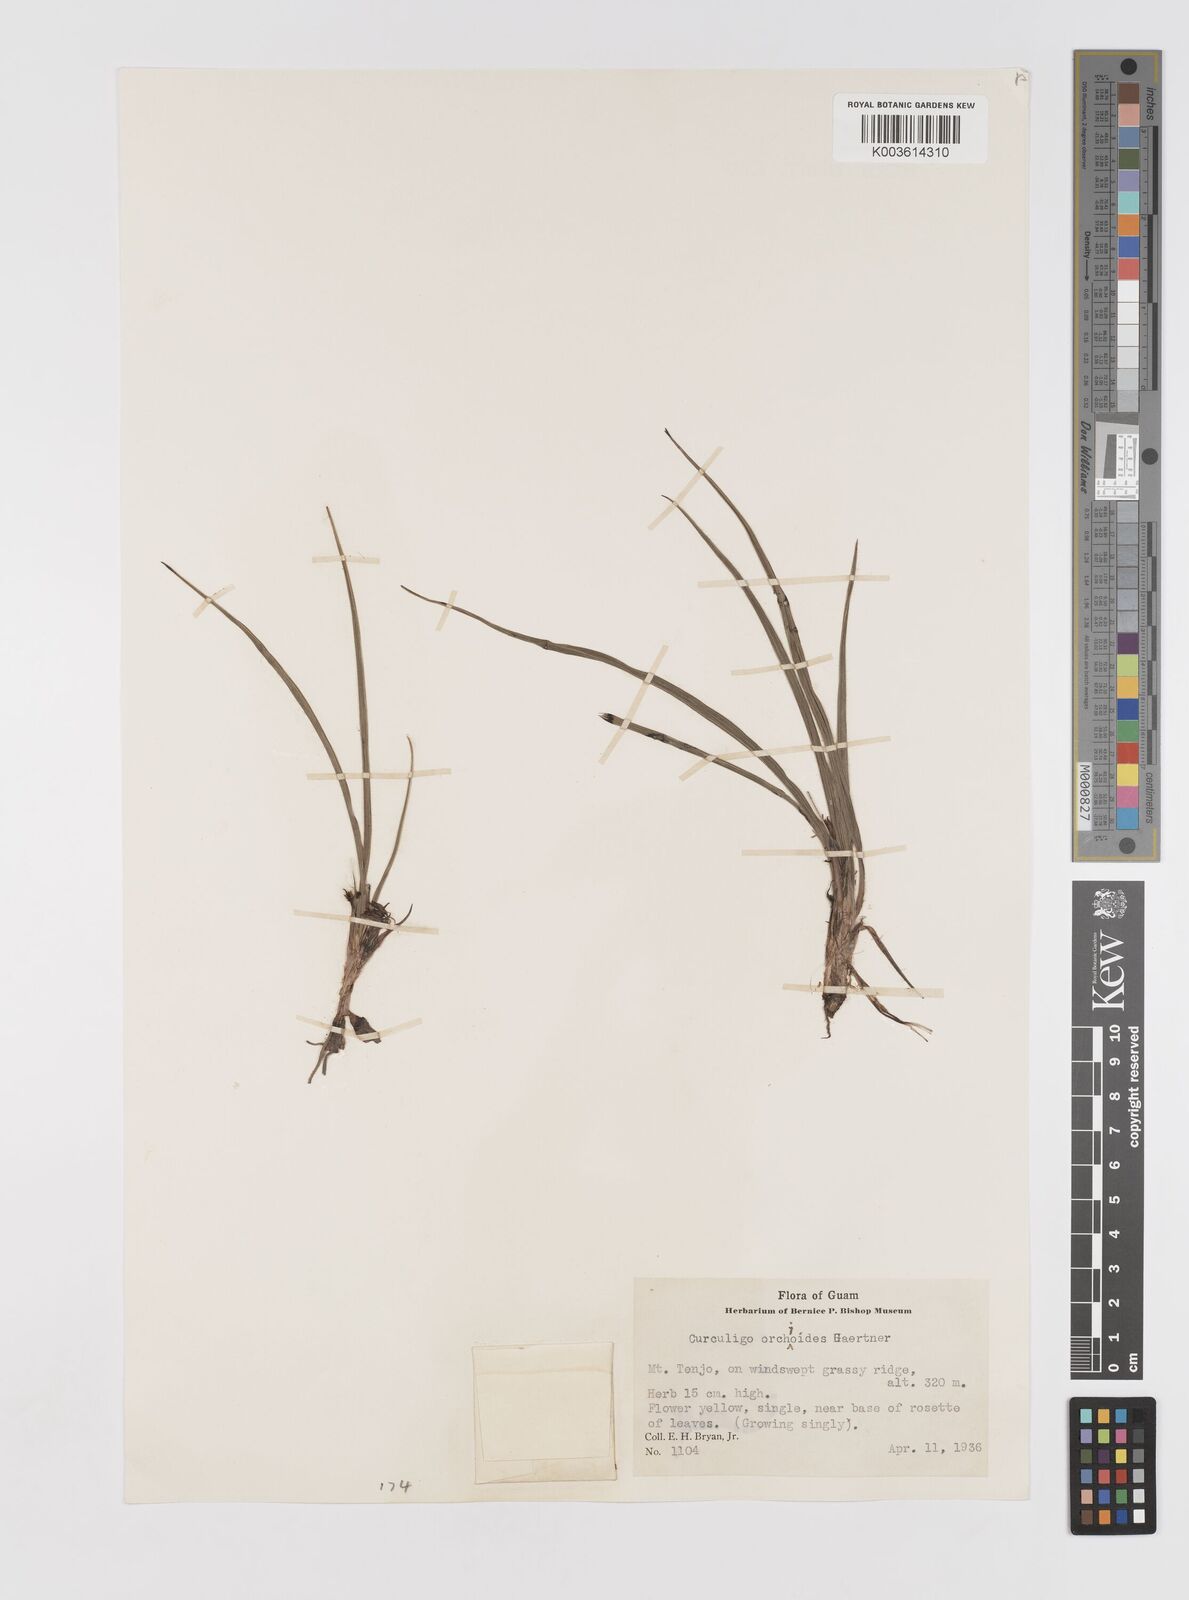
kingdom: Plantae
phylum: Tracheophyta
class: Liliopsida
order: Asparagales
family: Hypoxidaceae
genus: Curculigo
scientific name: Curculigo orchioides
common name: Golden eye-grass
